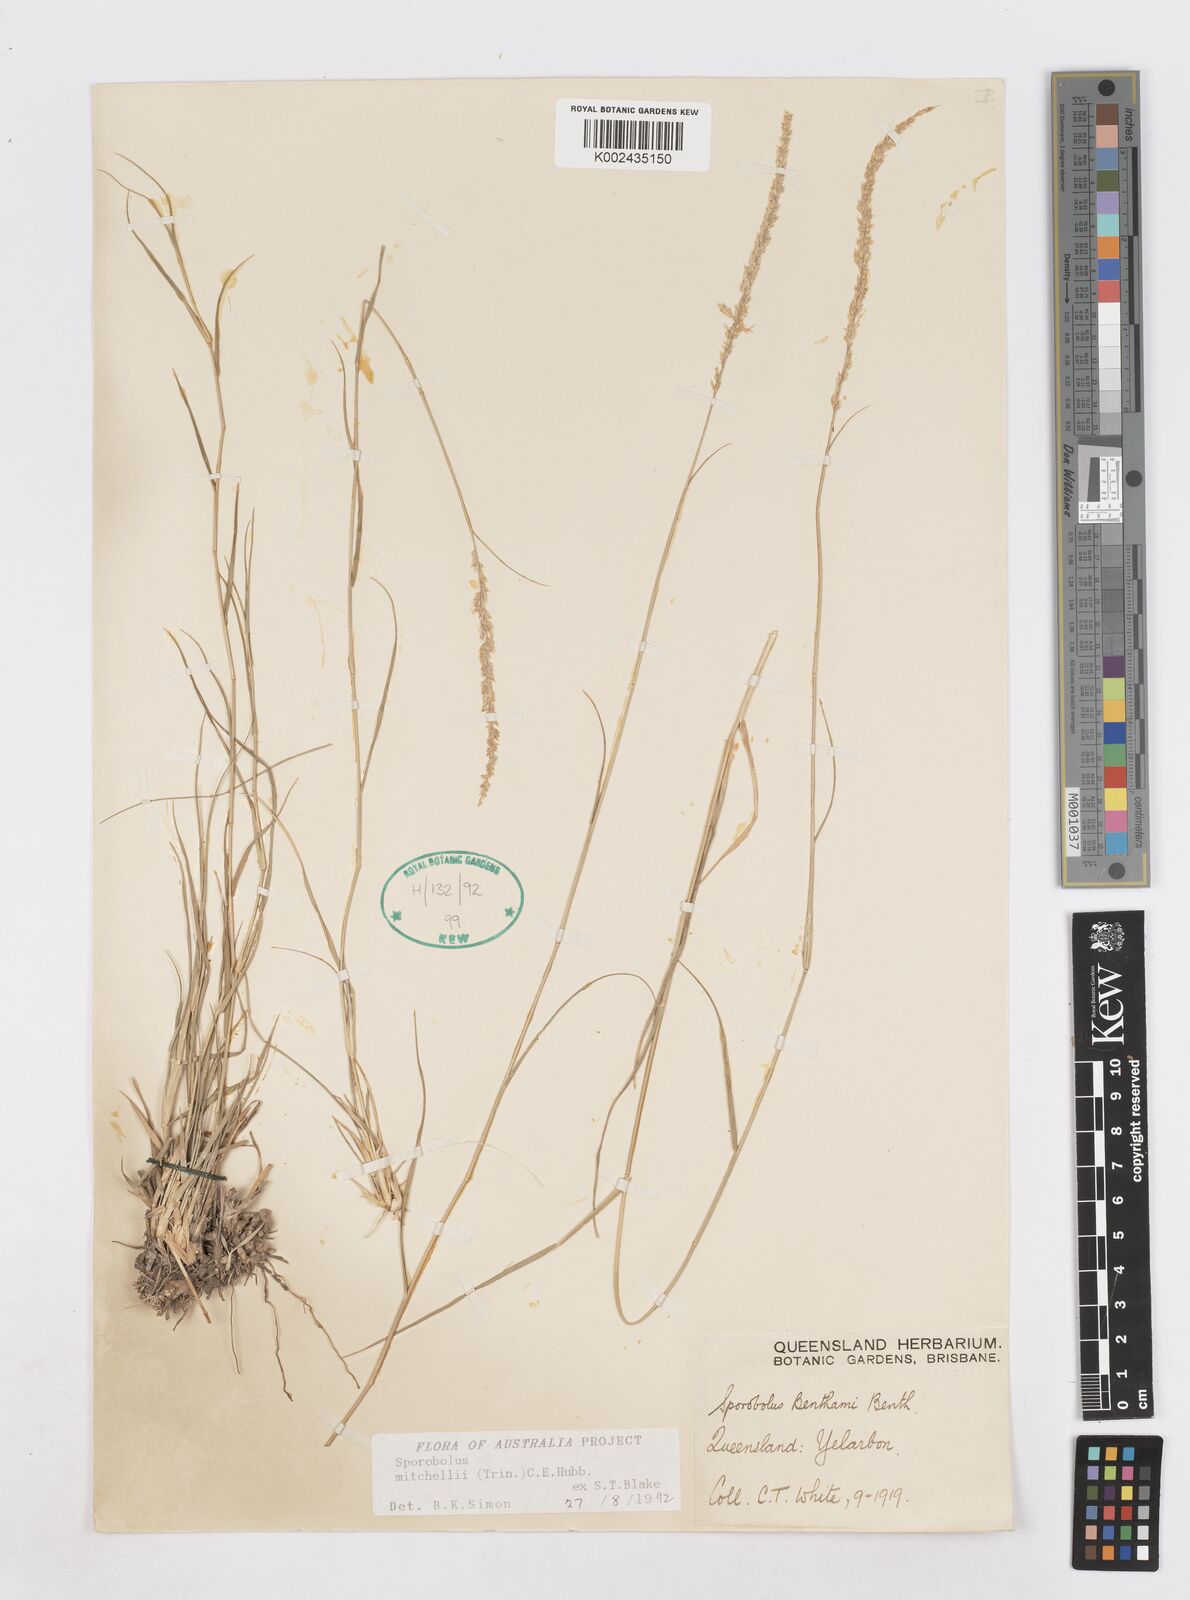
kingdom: Plantae
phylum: Tracheophyta
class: Liliopsida
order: Poales
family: Poaceae
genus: Sporobolus
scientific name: Sporobolus mitchellii
